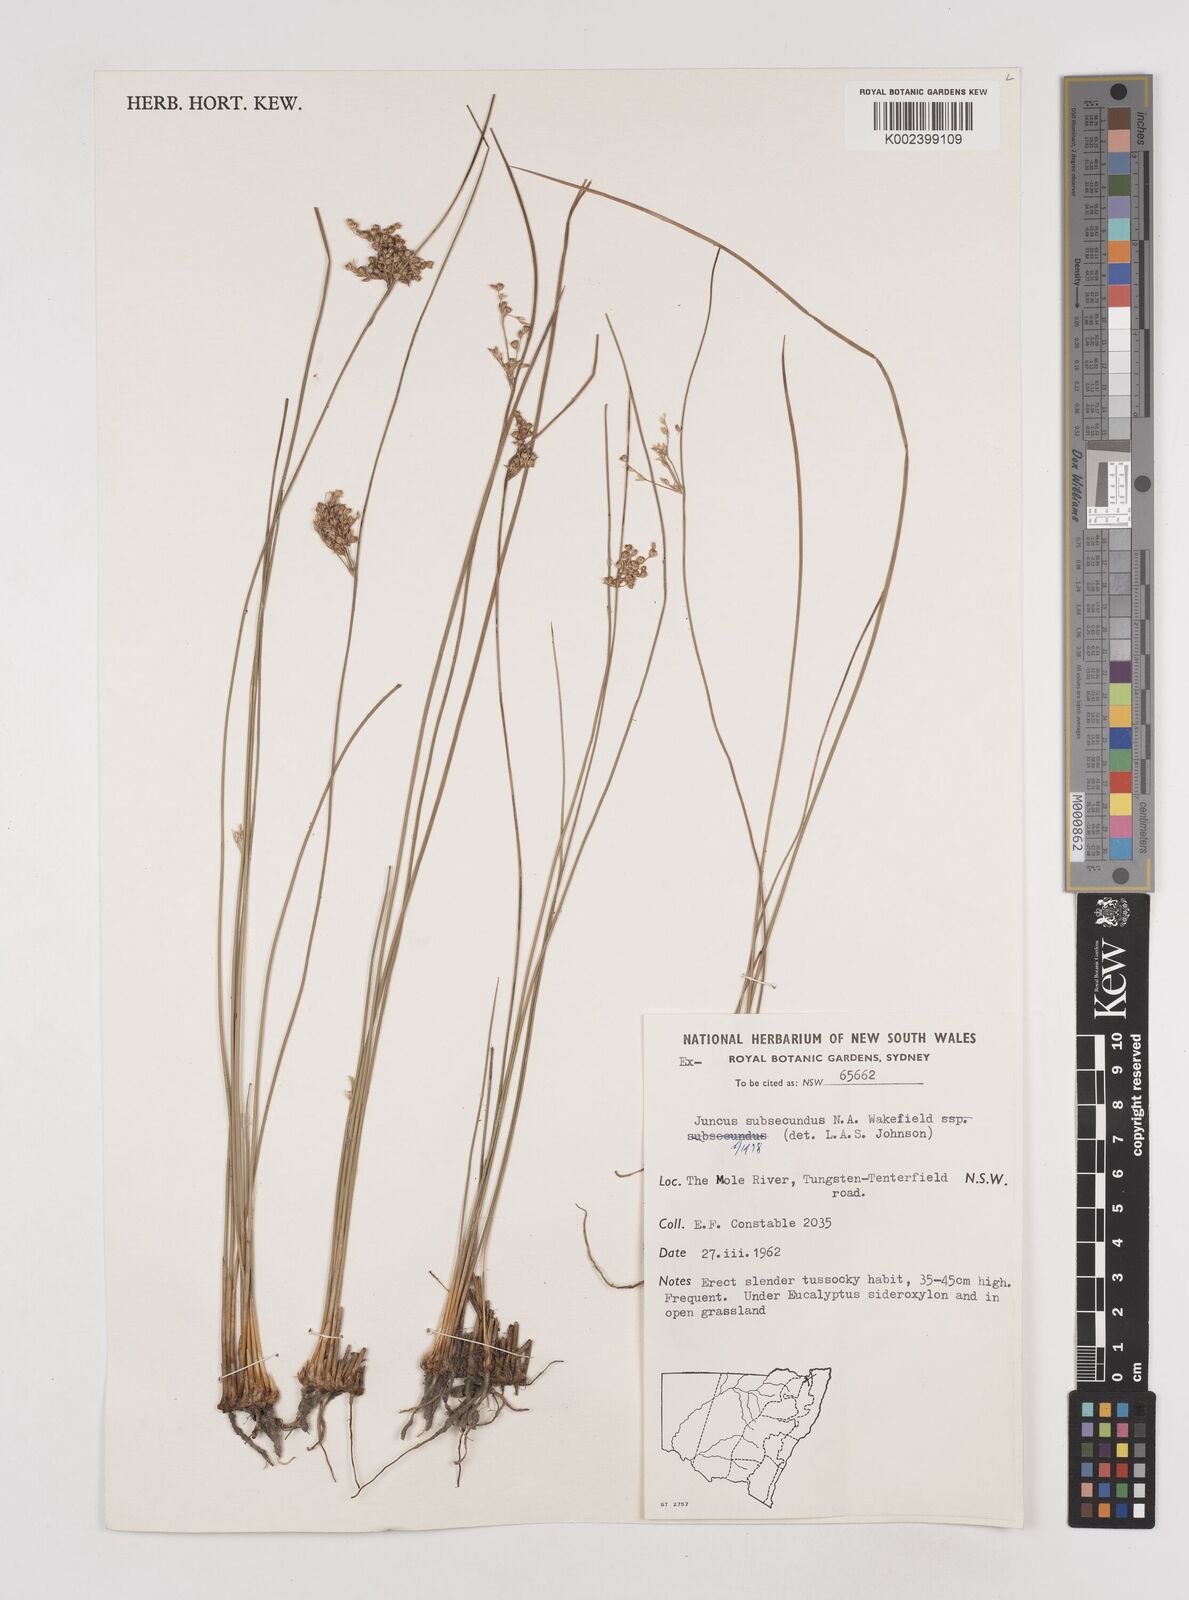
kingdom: Plantae
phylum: Tracheophyta
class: Liliopsida
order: Poales
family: Juncaceae
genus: Juncus
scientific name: Juncus subsecundus
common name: Fingered rush
